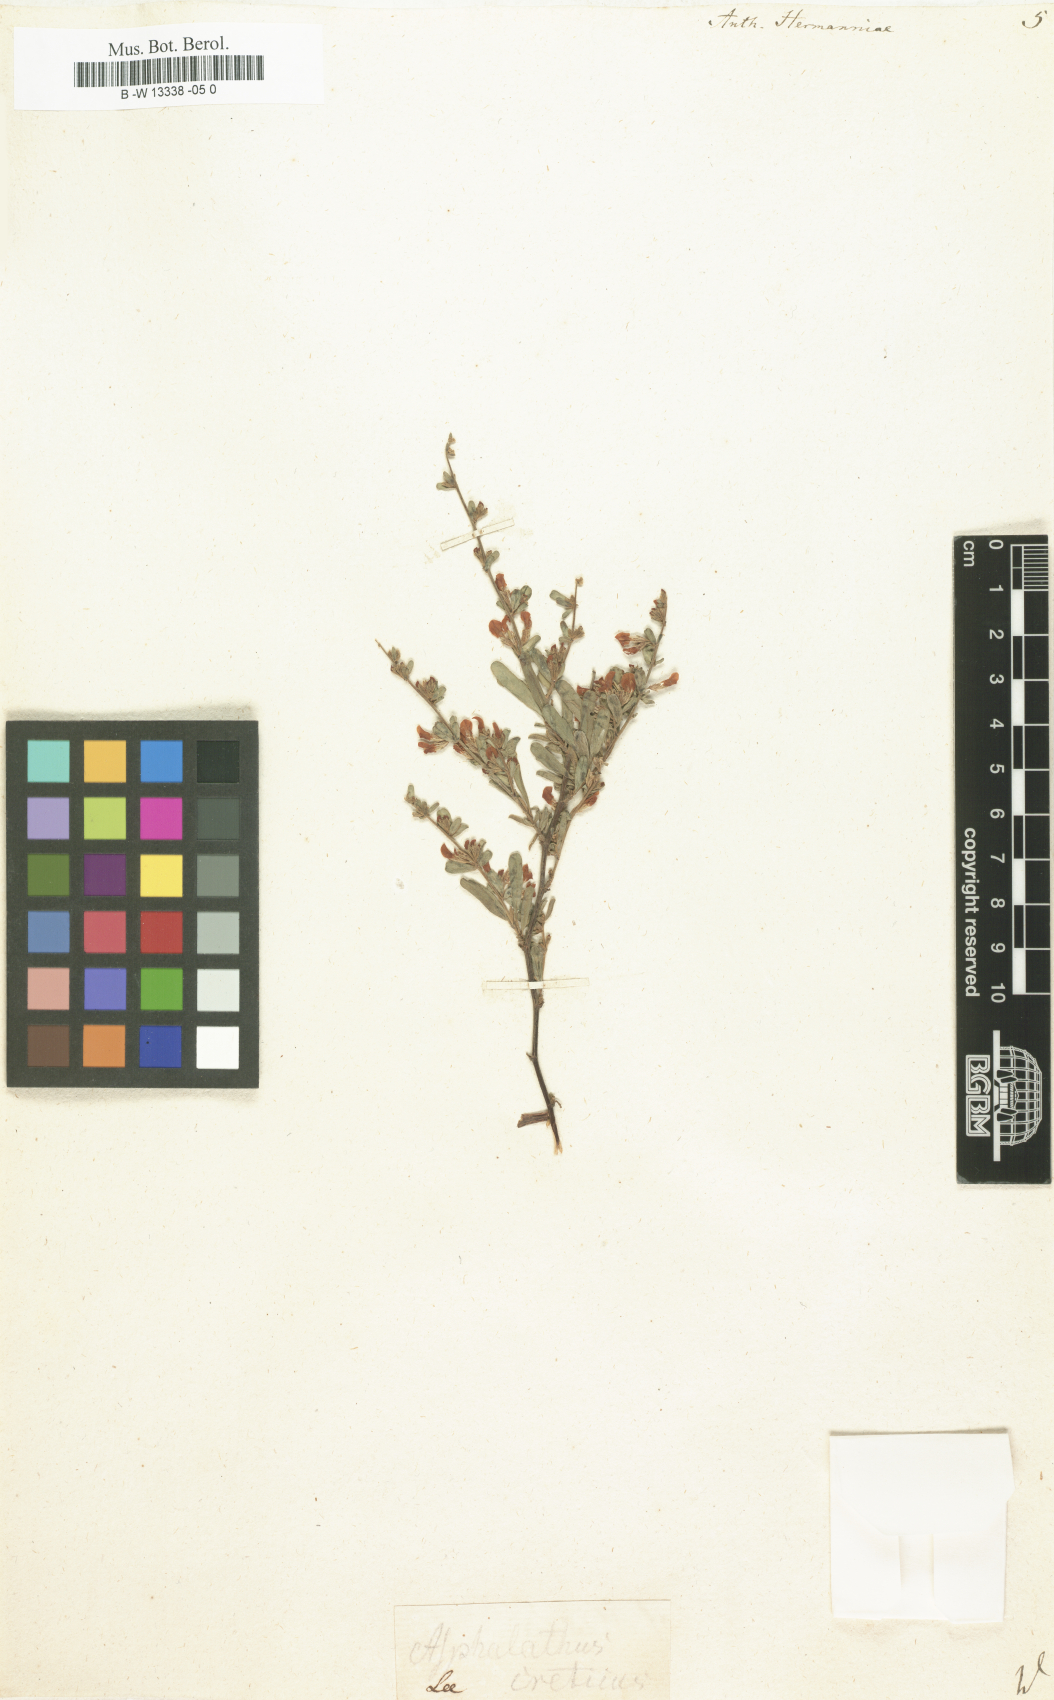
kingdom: Plantae
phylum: Tracheophyta
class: Magnoliopsida
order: Fabales
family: Fabaceae
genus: Anthyllis
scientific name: Anthyllis hermanniae
